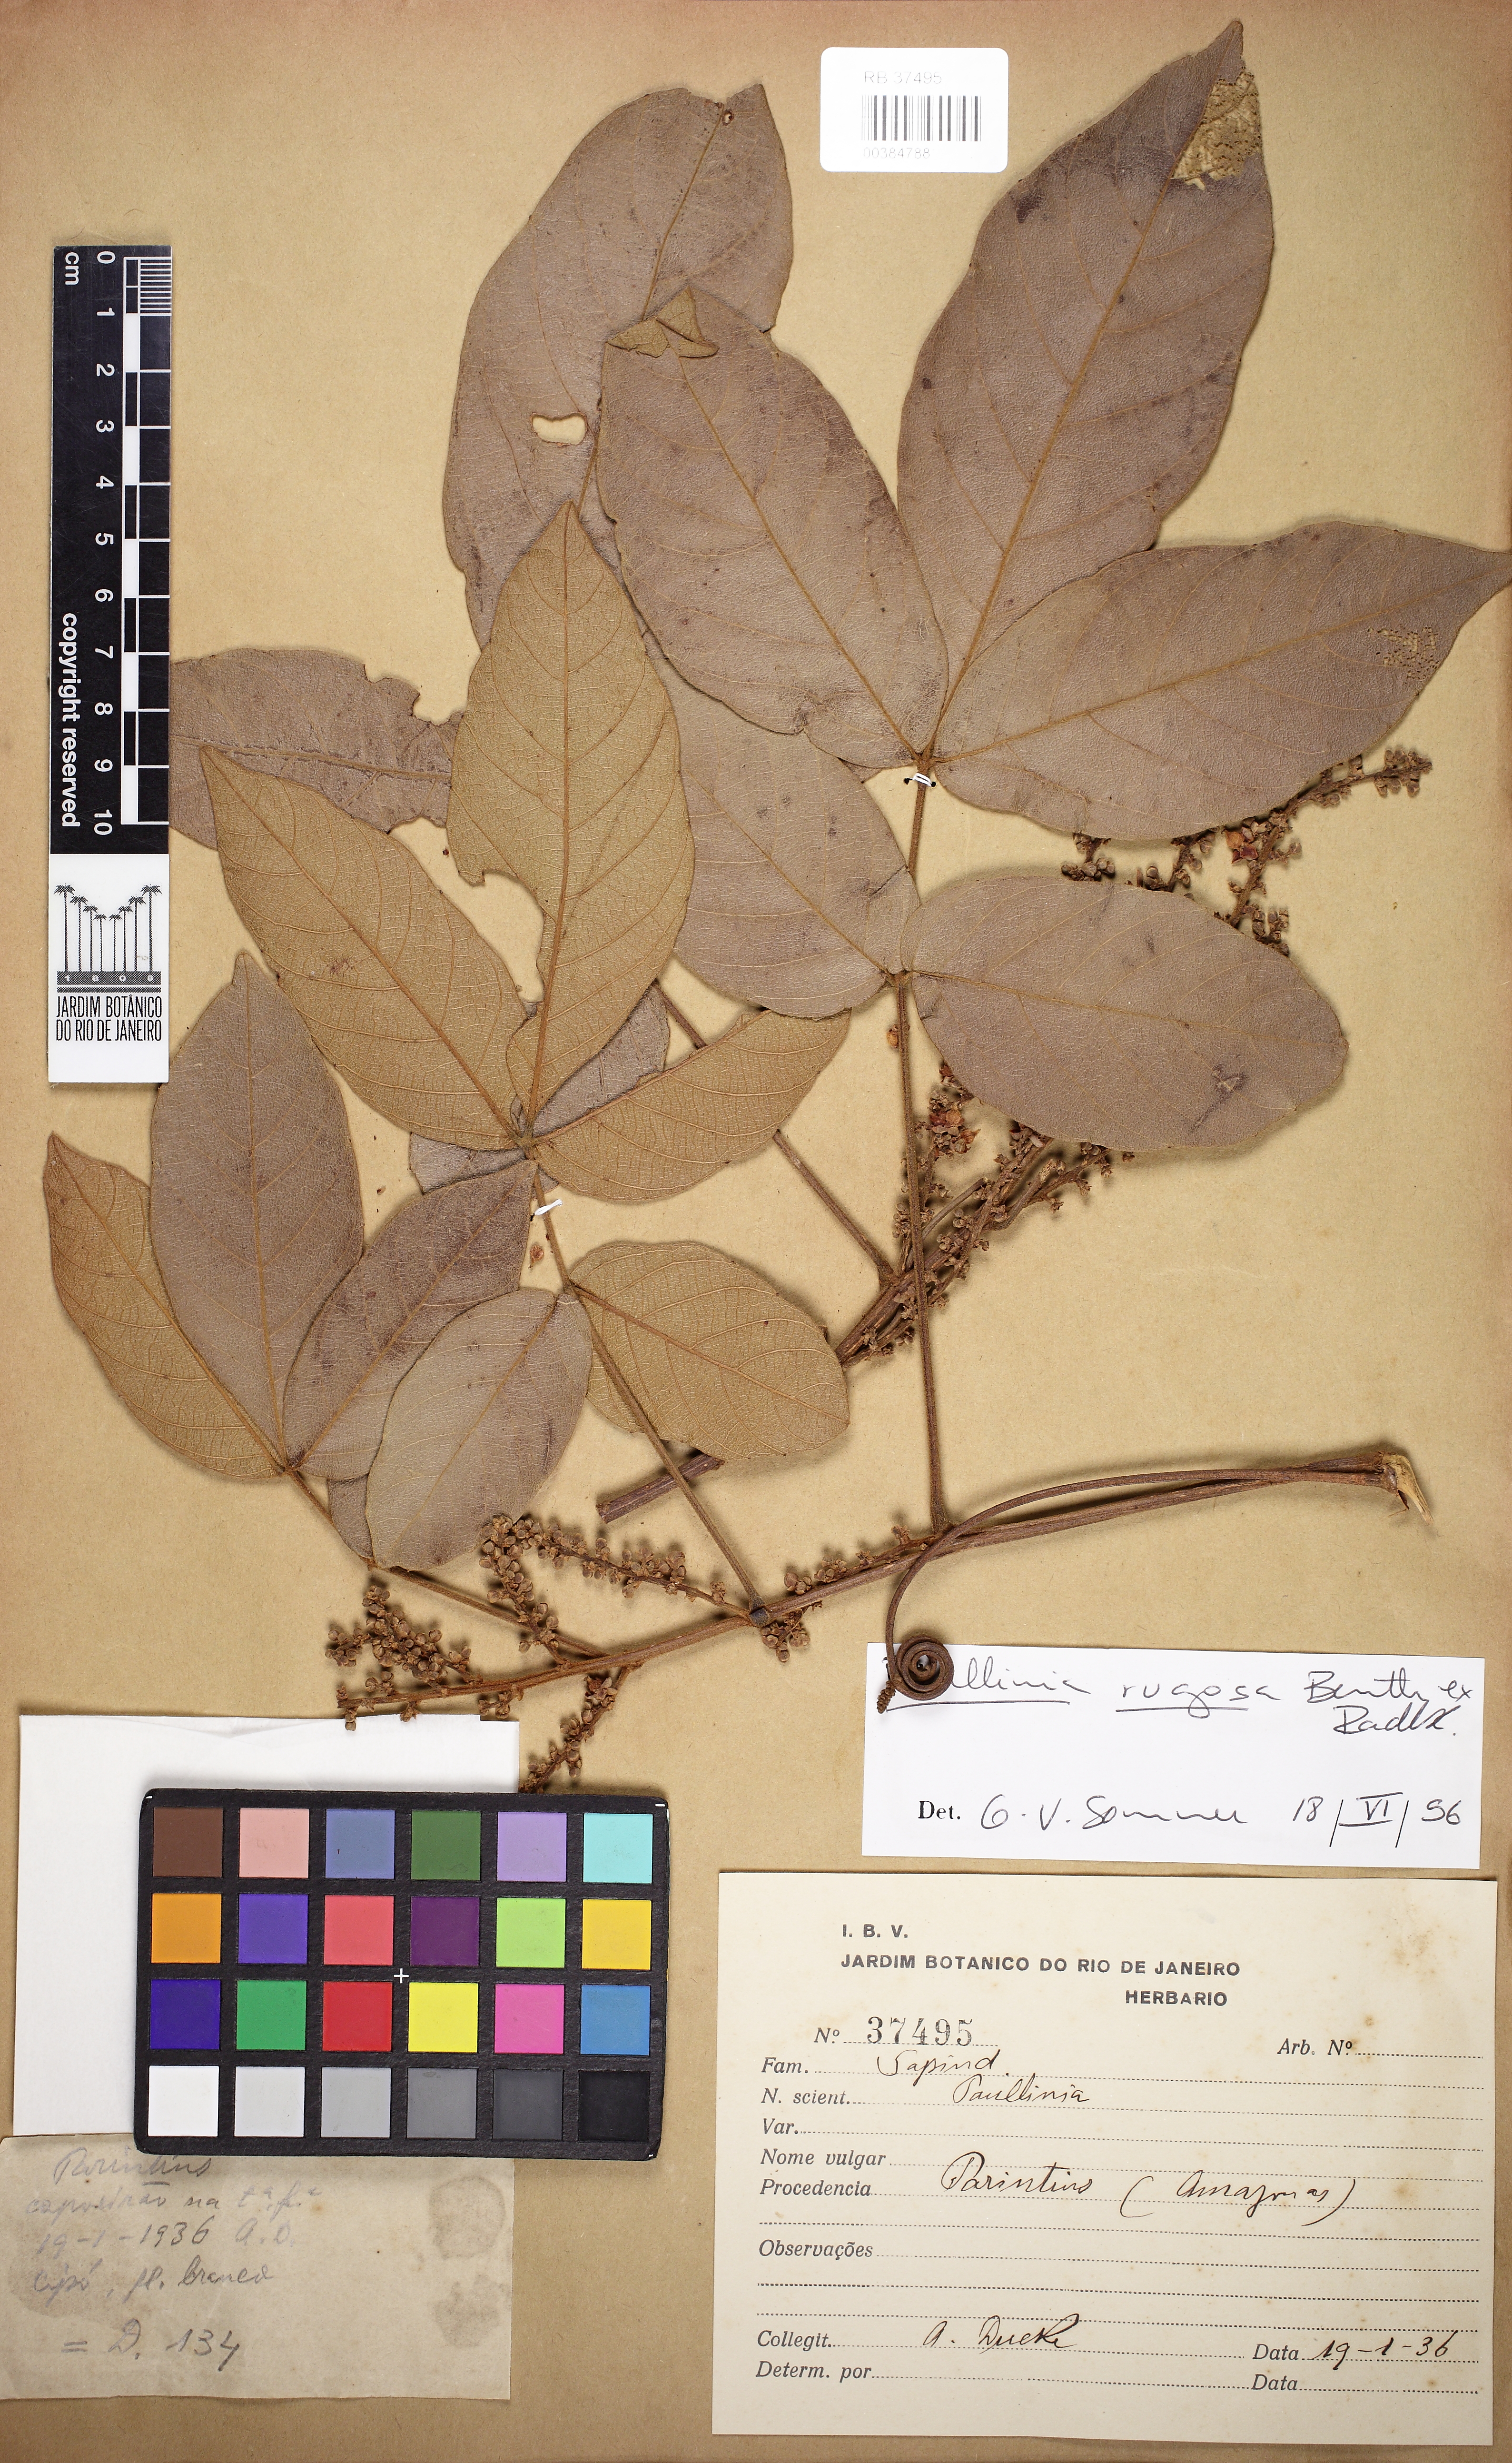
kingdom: Plantae
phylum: Tracheophyta
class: Magnoliopsida
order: Sapindales
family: Sapindaceae
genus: Paullinia
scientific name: Paullinia
